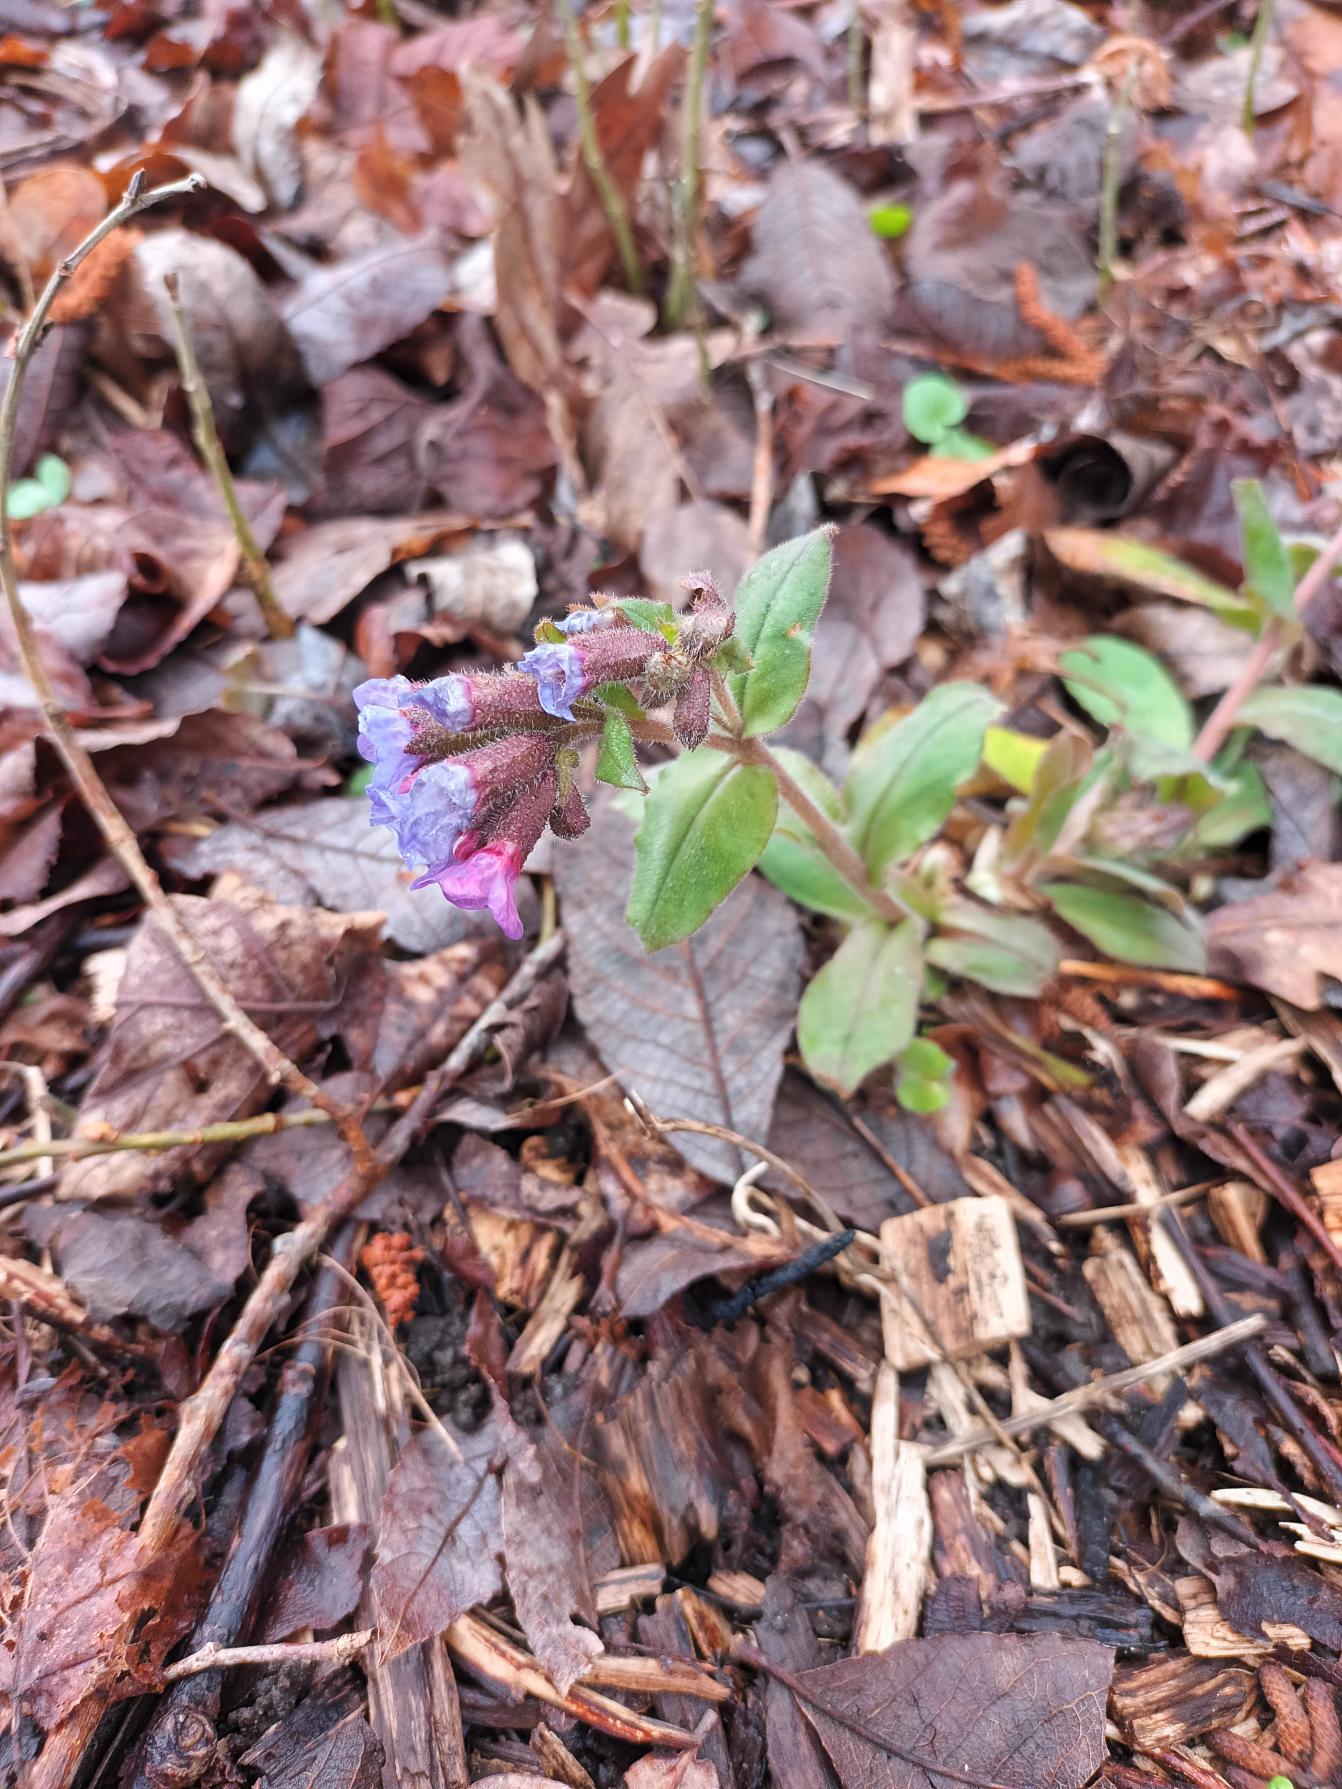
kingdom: Plantae
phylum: Tracheophyta
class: Magnoliopsida
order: Boraginales
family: Boraginaceae
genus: Pulmonaria
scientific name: Pulmonaria obscura
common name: Almindelig lungeurt
